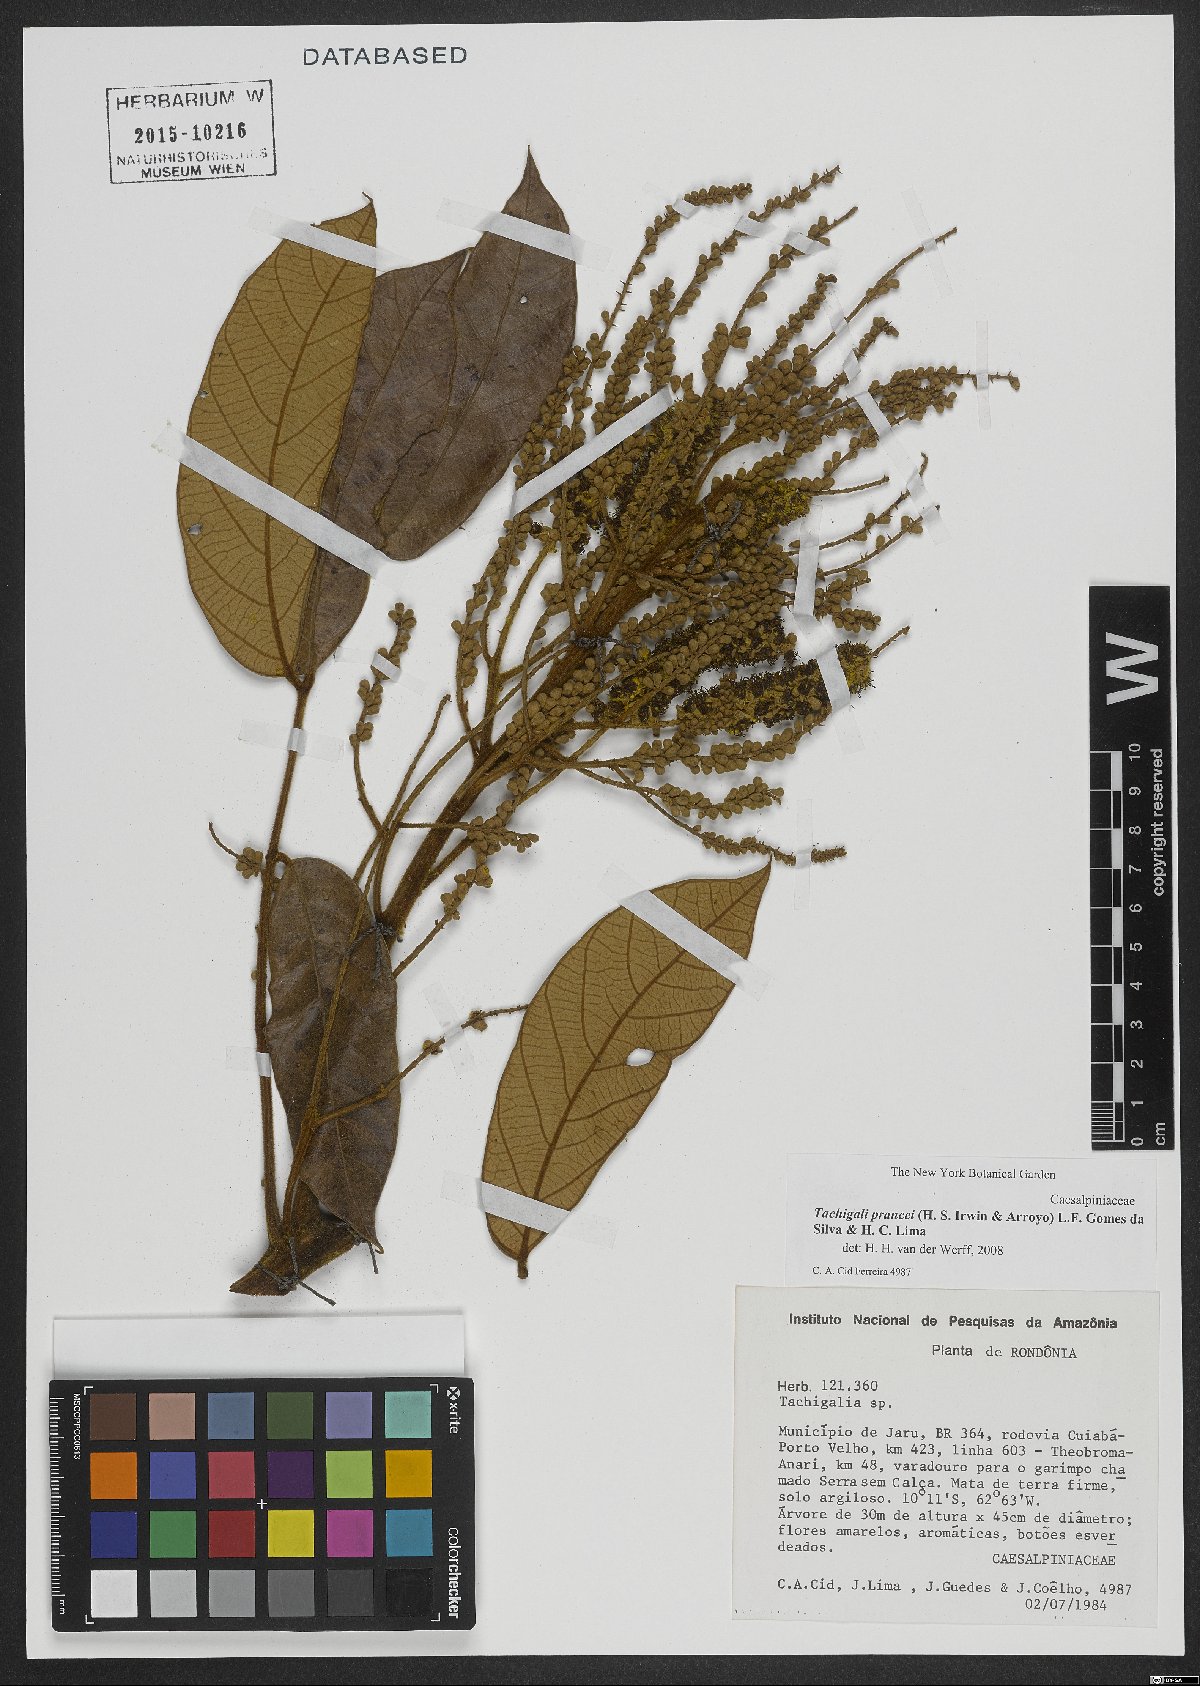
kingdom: Plantae
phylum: Tracheophyta
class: Magnoliopsida
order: Fabales
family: Fabaceae
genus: Tachigali
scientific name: Tachigali prancei
